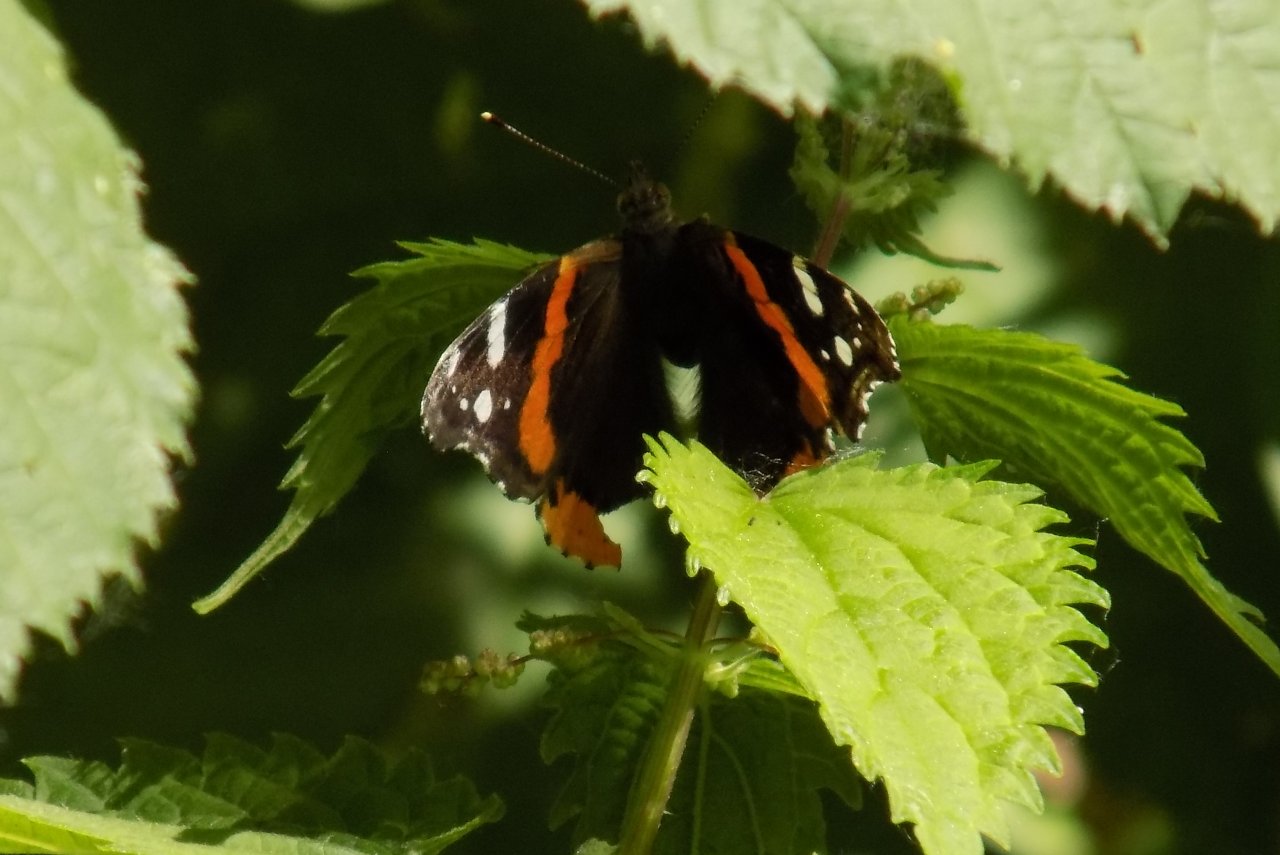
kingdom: Animalia
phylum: Arthropoda
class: Insecta
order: Lepidoptera
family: Nymphalidae
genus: Vanessa
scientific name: Vanessa atalanta
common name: Red Admiral
